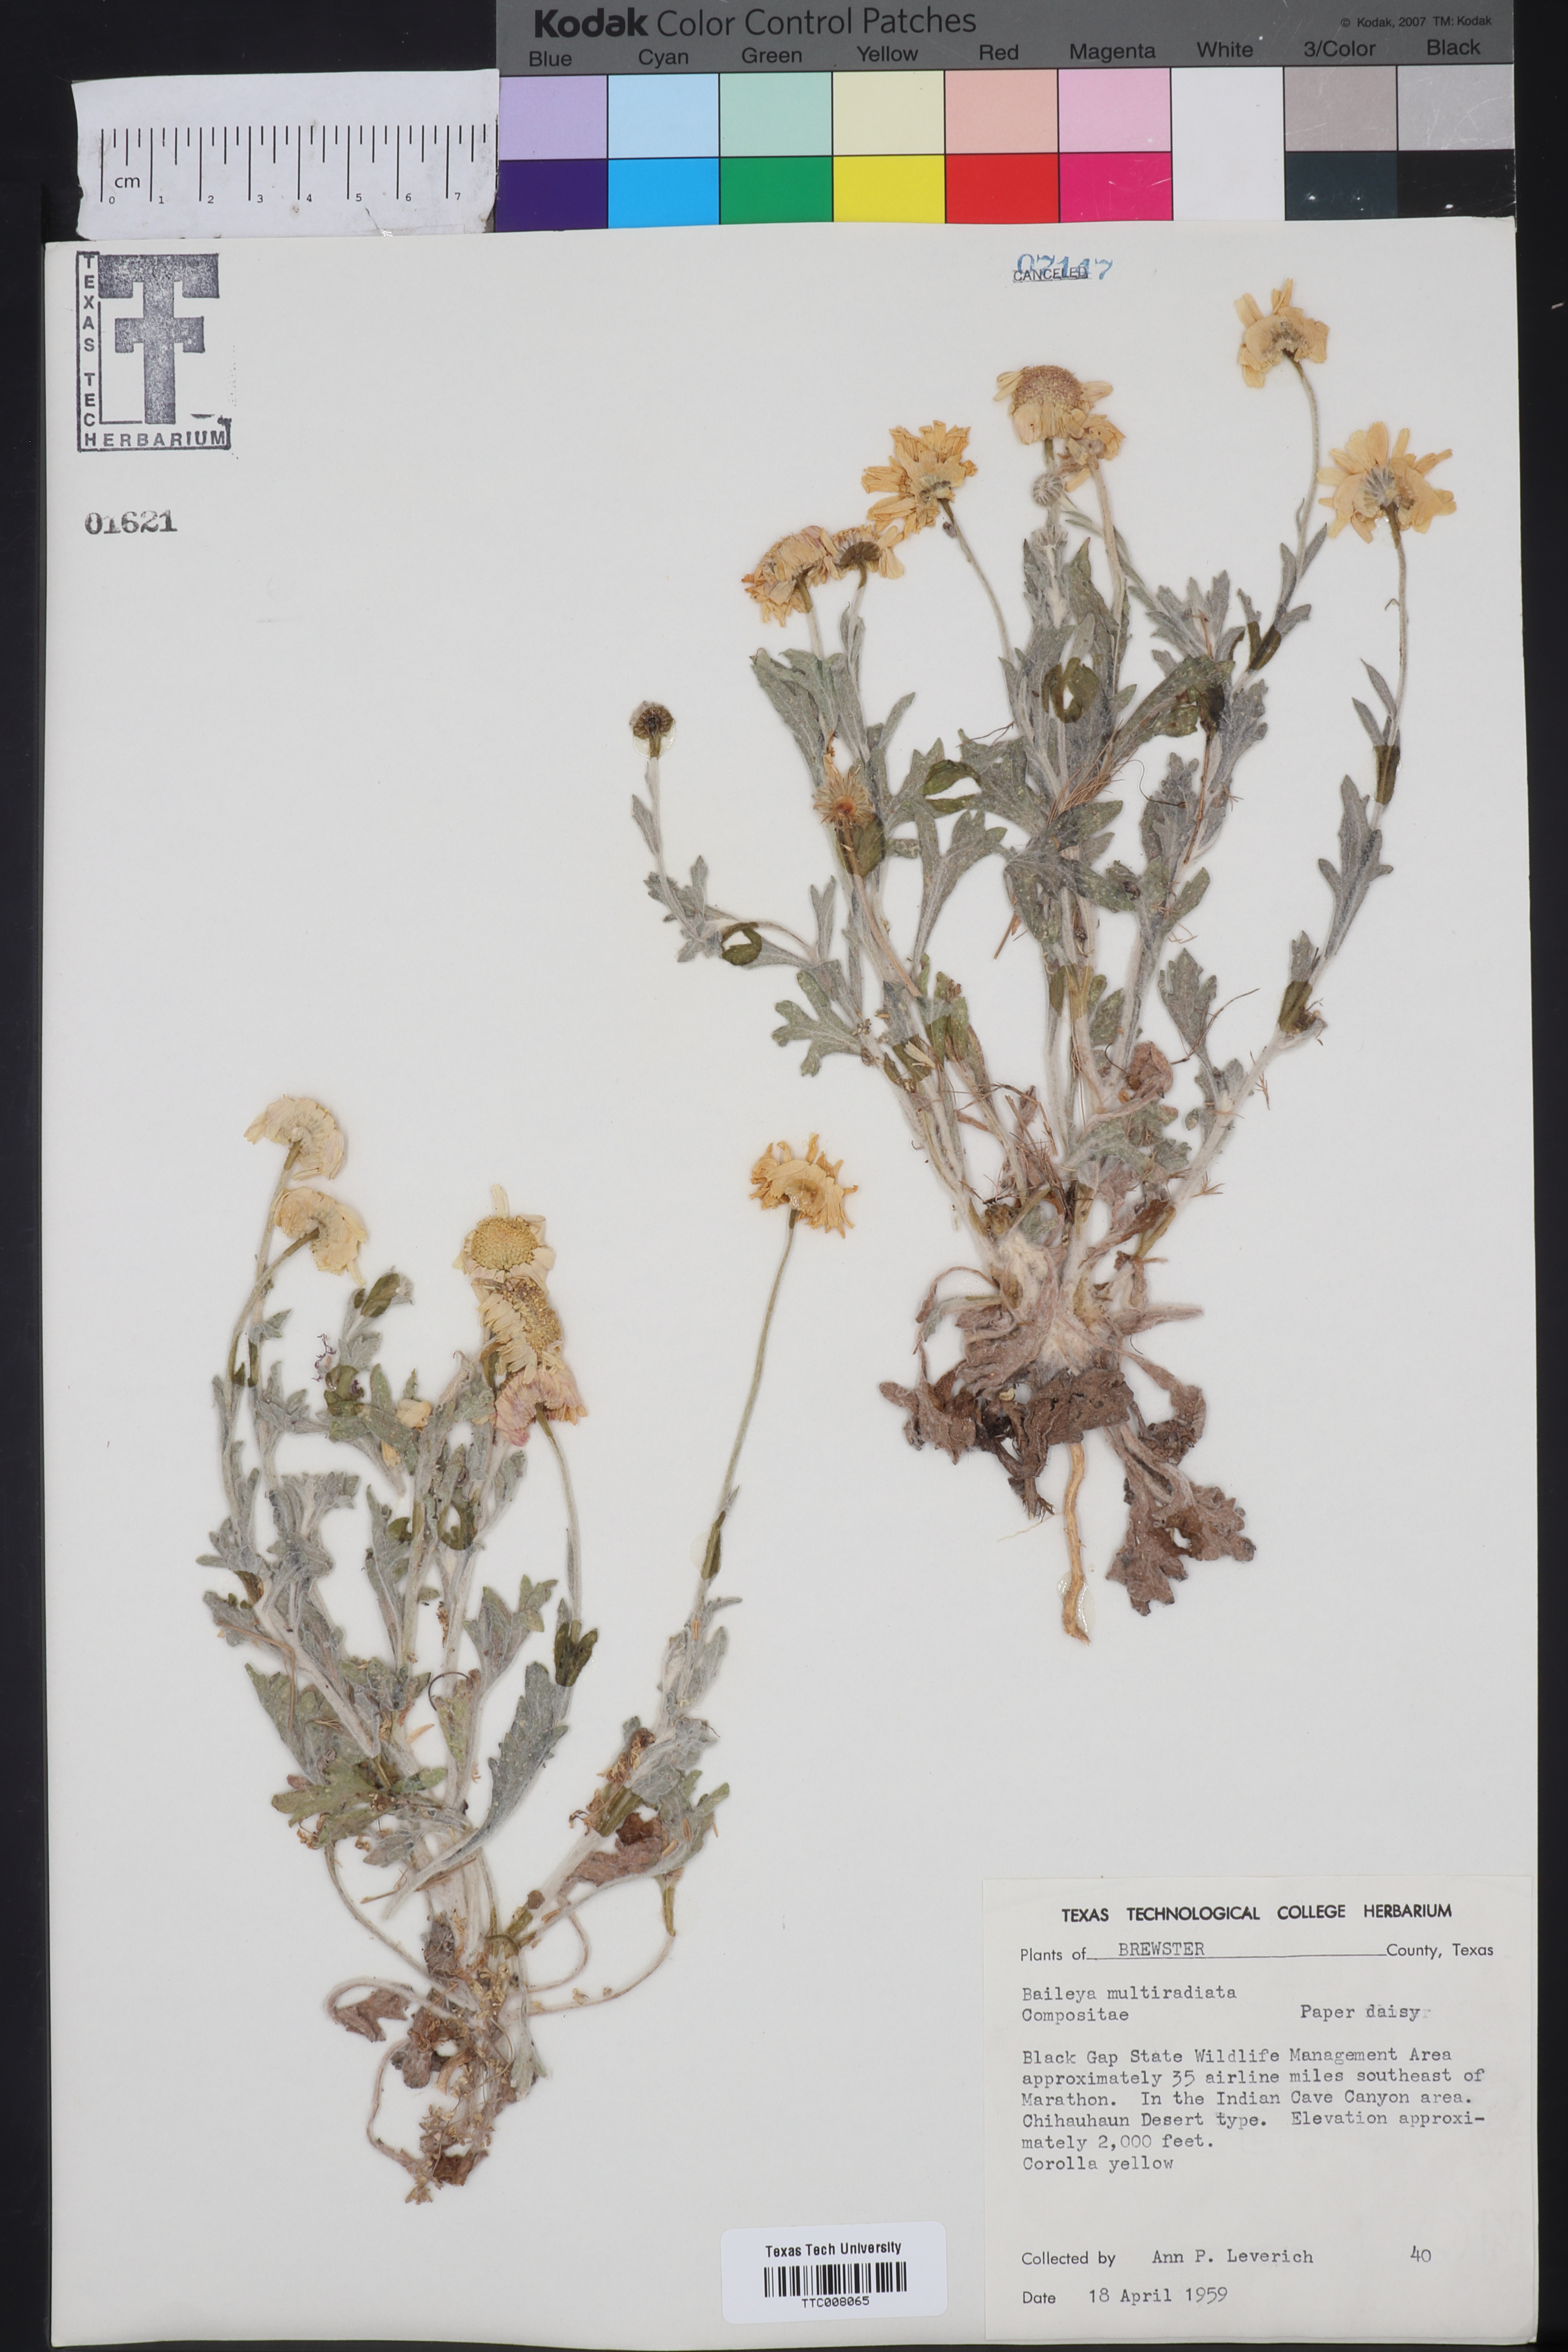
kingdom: Plantae
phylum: Tracheophyta
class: Magnoliopsida
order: Asterales
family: Asteraceae
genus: Baileya
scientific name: Baileya multiradiata
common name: Desert-marigold
